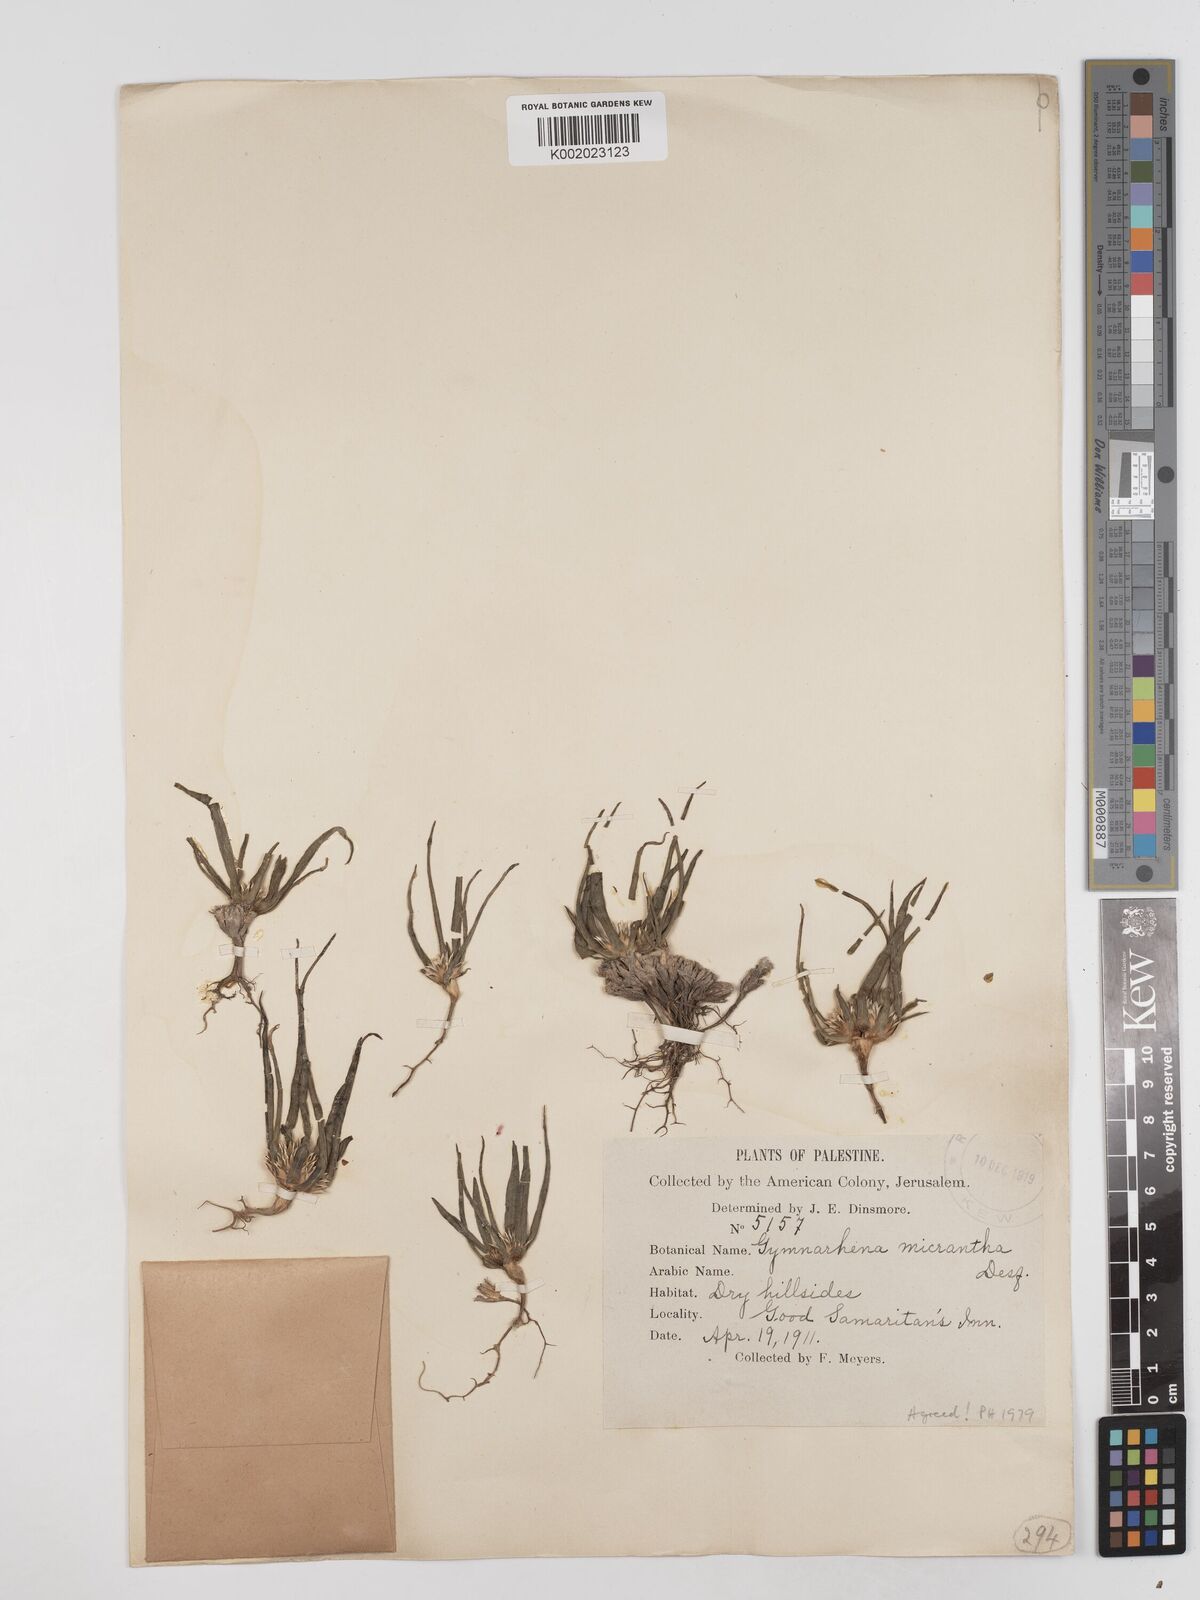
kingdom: Plantae
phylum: Tracheophyta
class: Magnoliopsida
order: Asterales
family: Asteraceae
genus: Gymnarrhena
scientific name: Gymnarrhena micrantha
